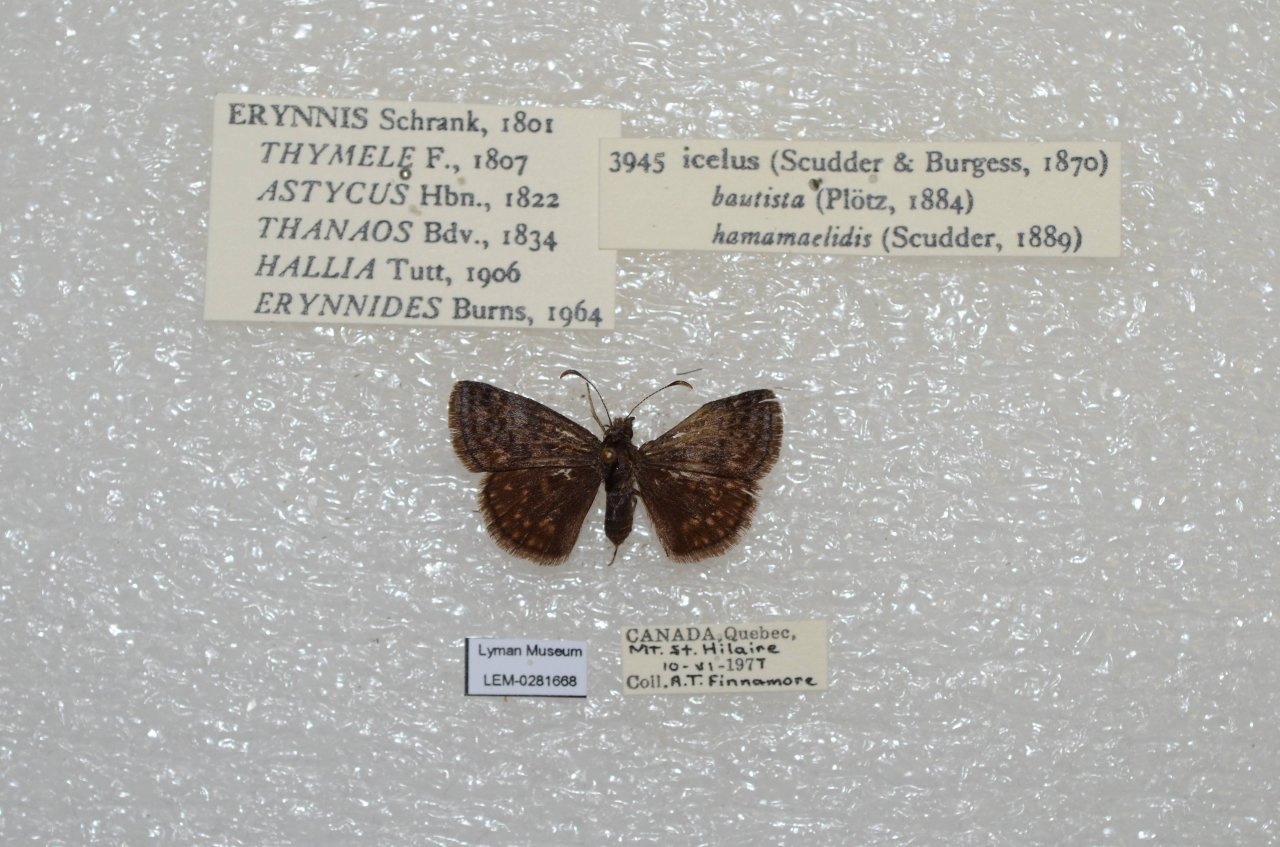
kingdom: Animalia
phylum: Arthropoda
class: Insecta
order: Lepidoptera
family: Hesperiidae
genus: Erynnis
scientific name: Erynnis icelus
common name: Dreamy Duskywing
